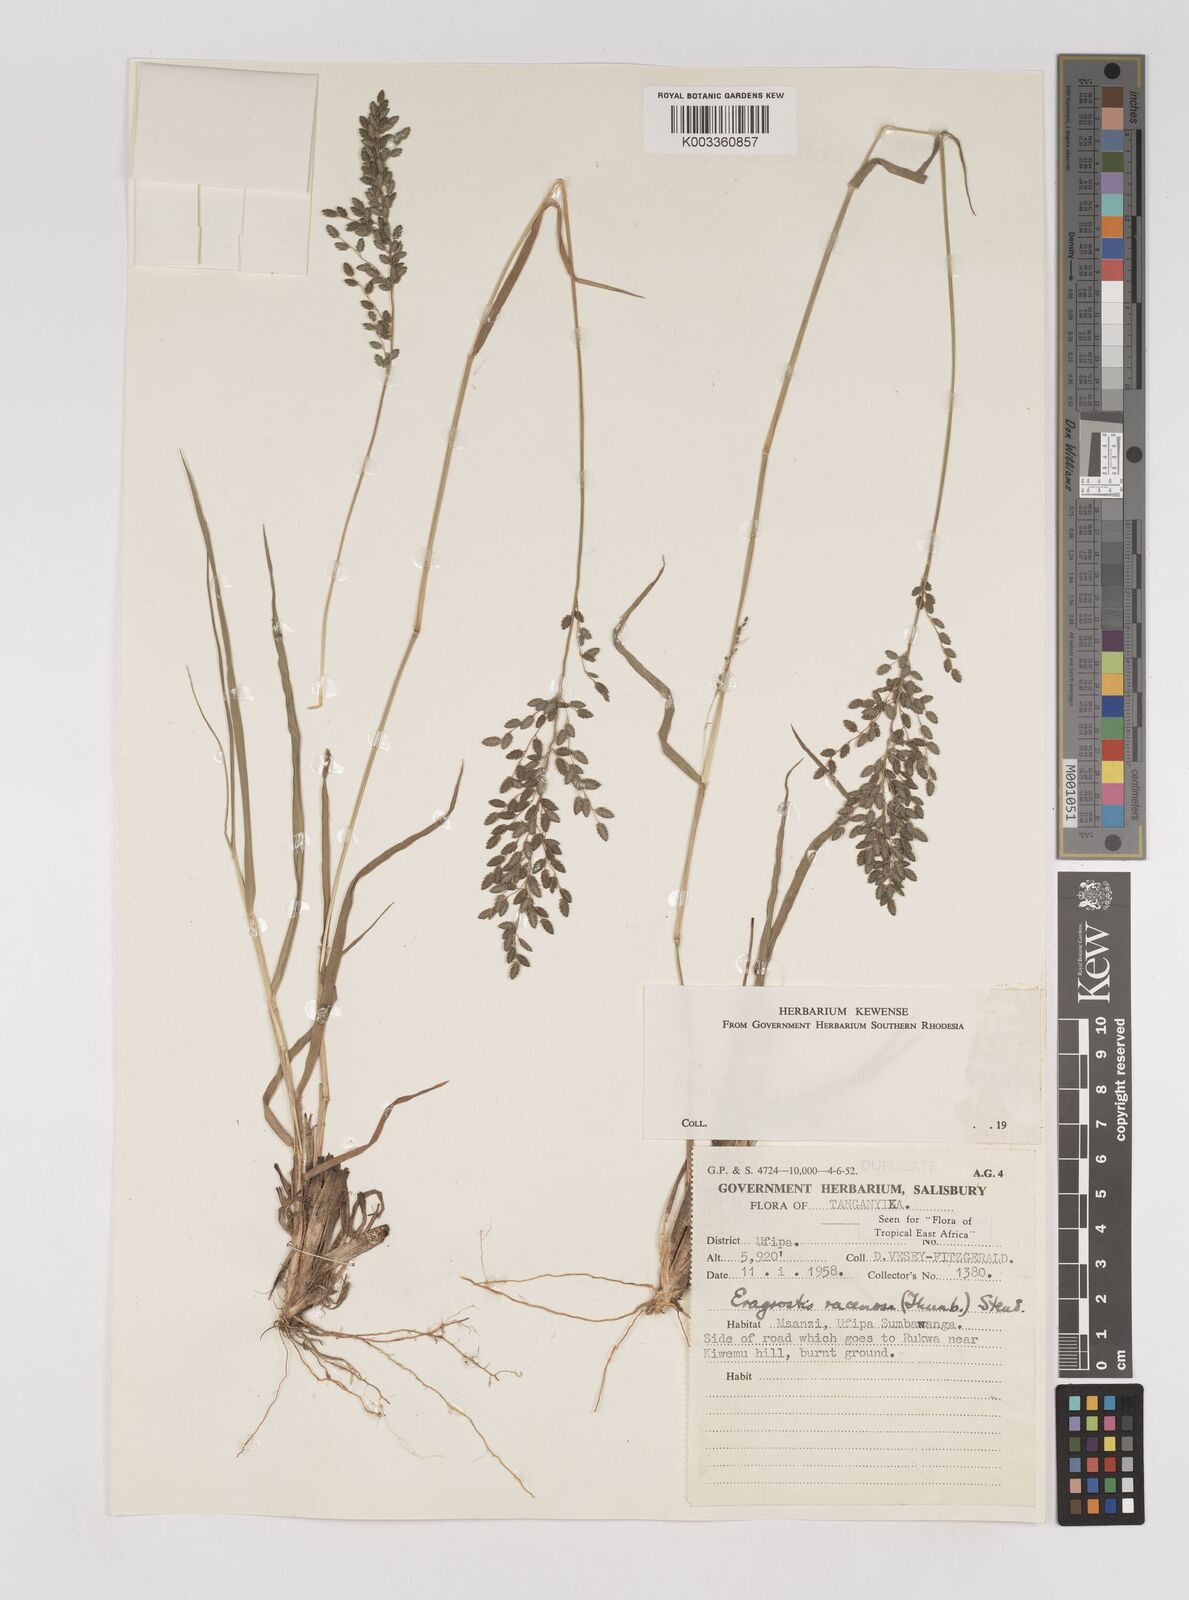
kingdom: Plantae
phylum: Tracheophyta
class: Liliopsida
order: Poales
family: Poaceae
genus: Eragrostis
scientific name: Eragrostis racemosa
